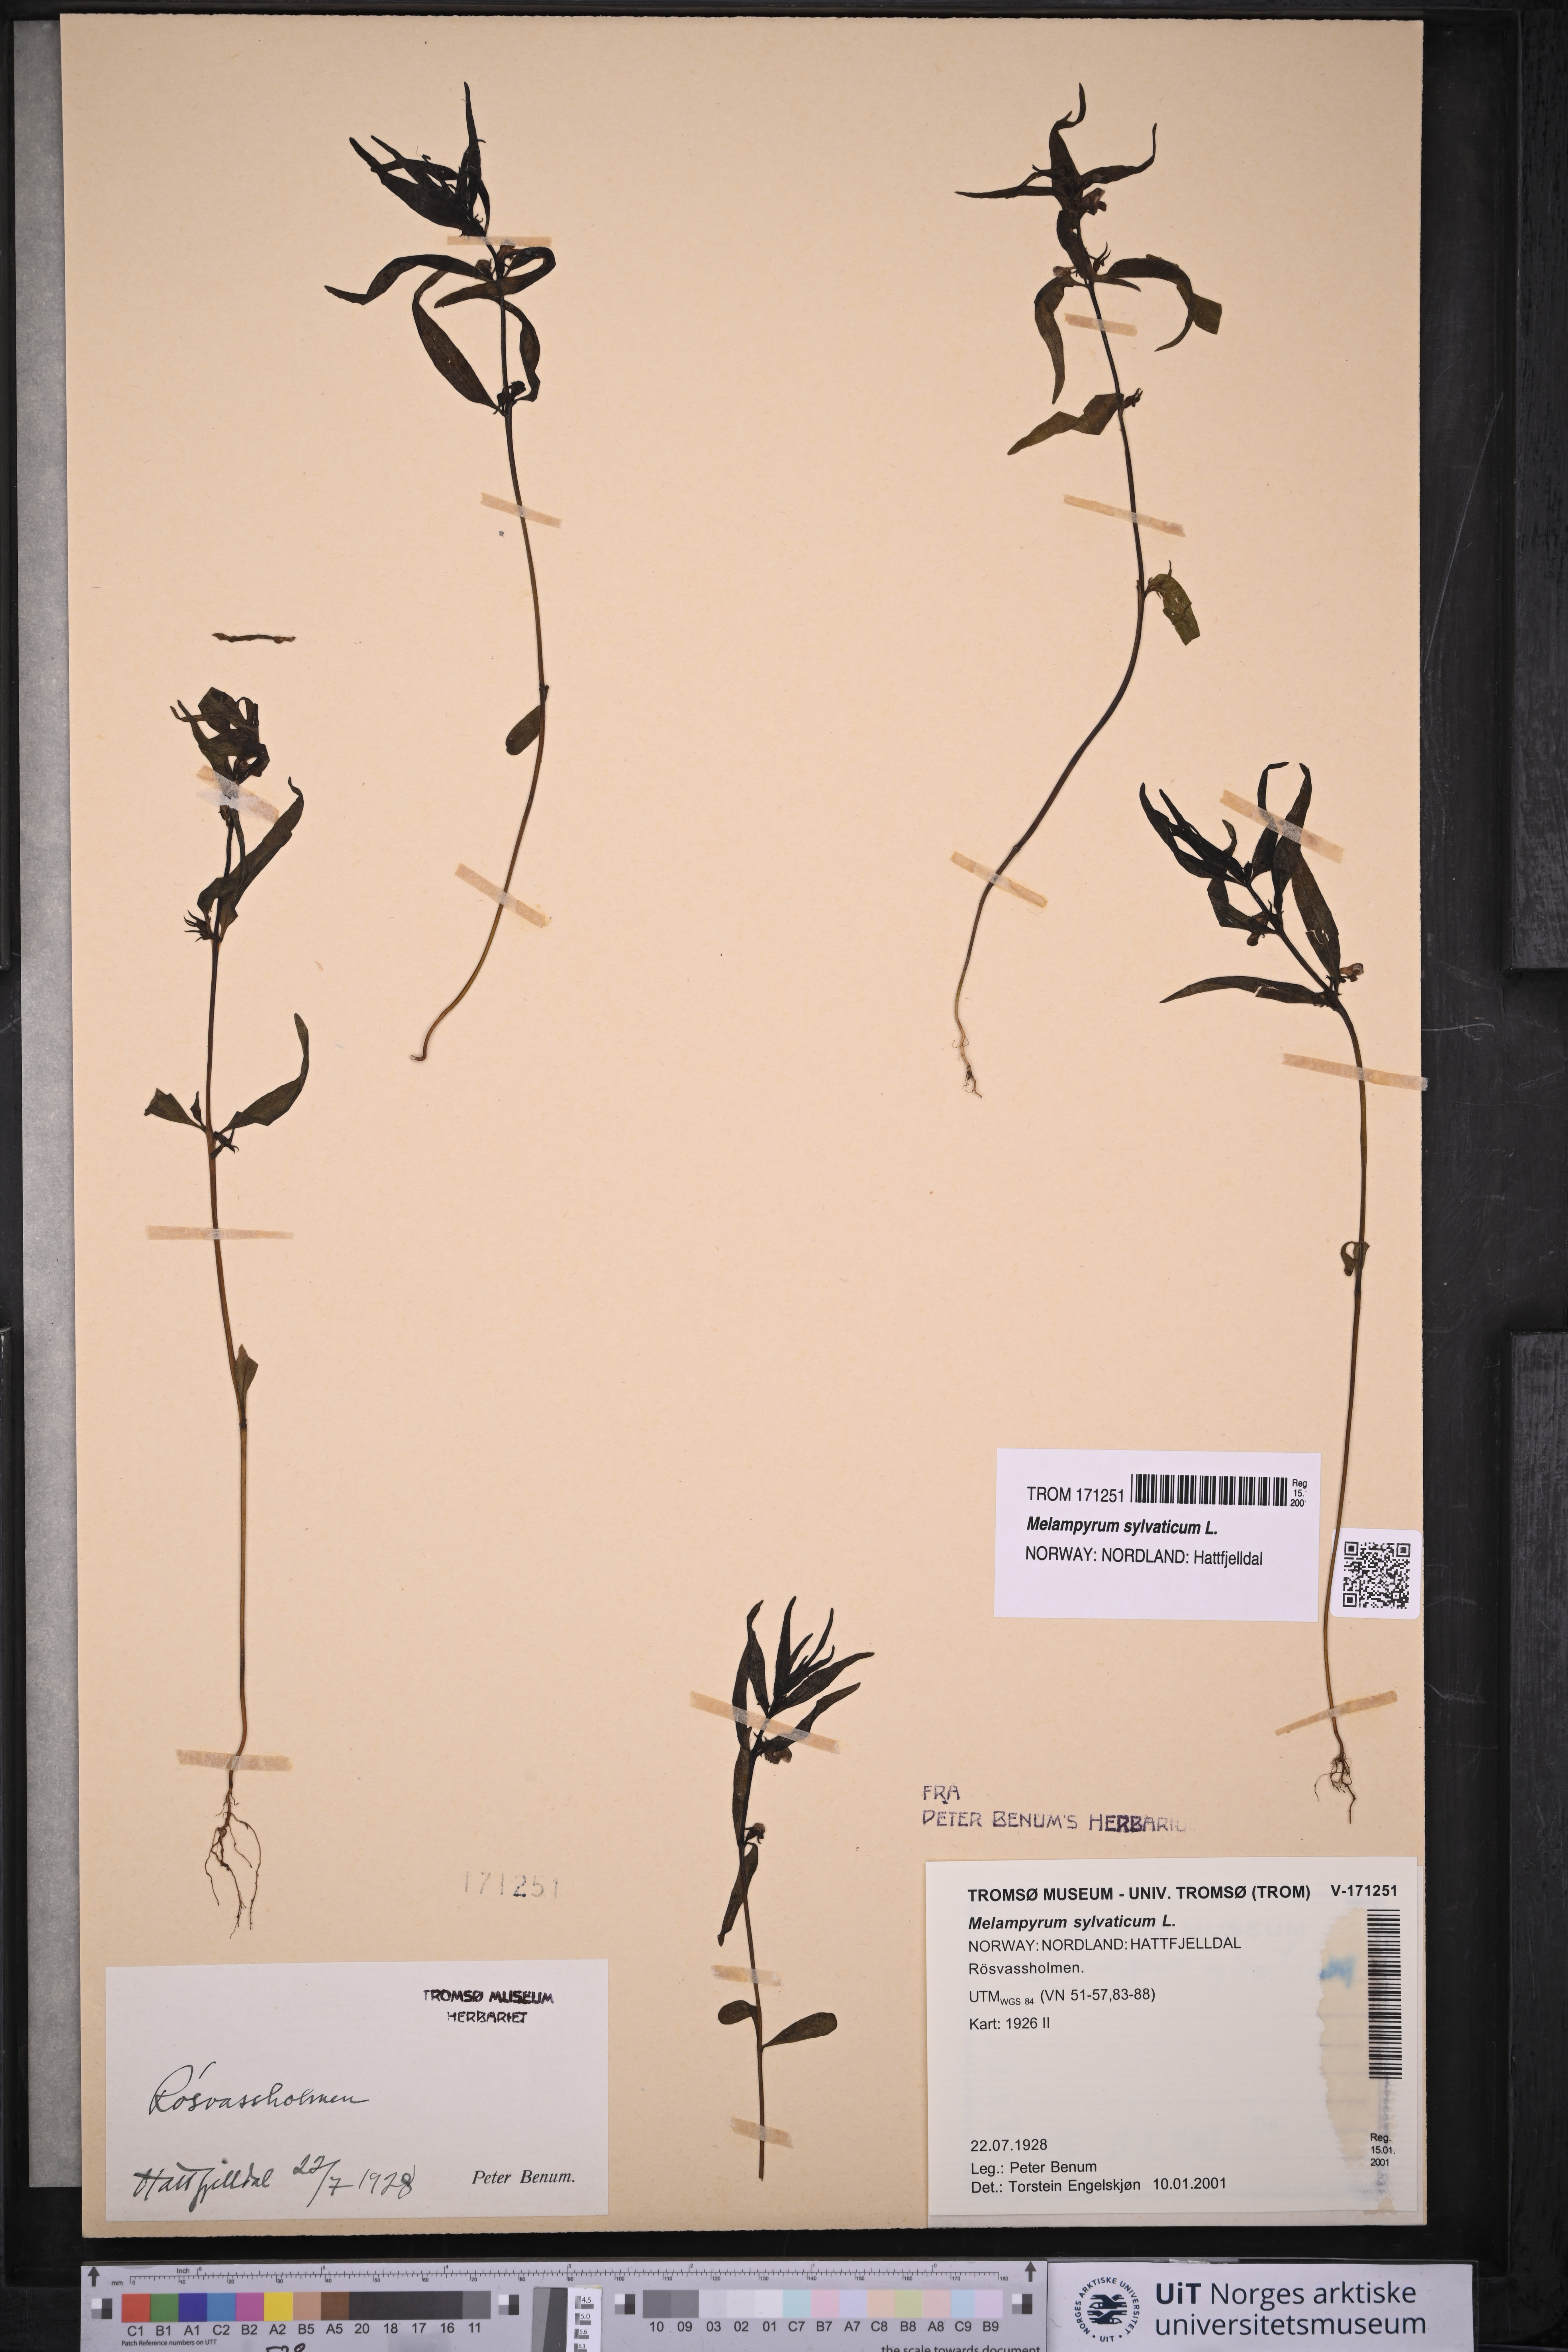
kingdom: Plantae
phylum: Tracheophyta
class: Magnoliopsida
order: Lamiales
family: Orobanchaceae
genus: Melampyrum
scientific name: Melampyrum sylvaticum
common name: Small cow-wheat
